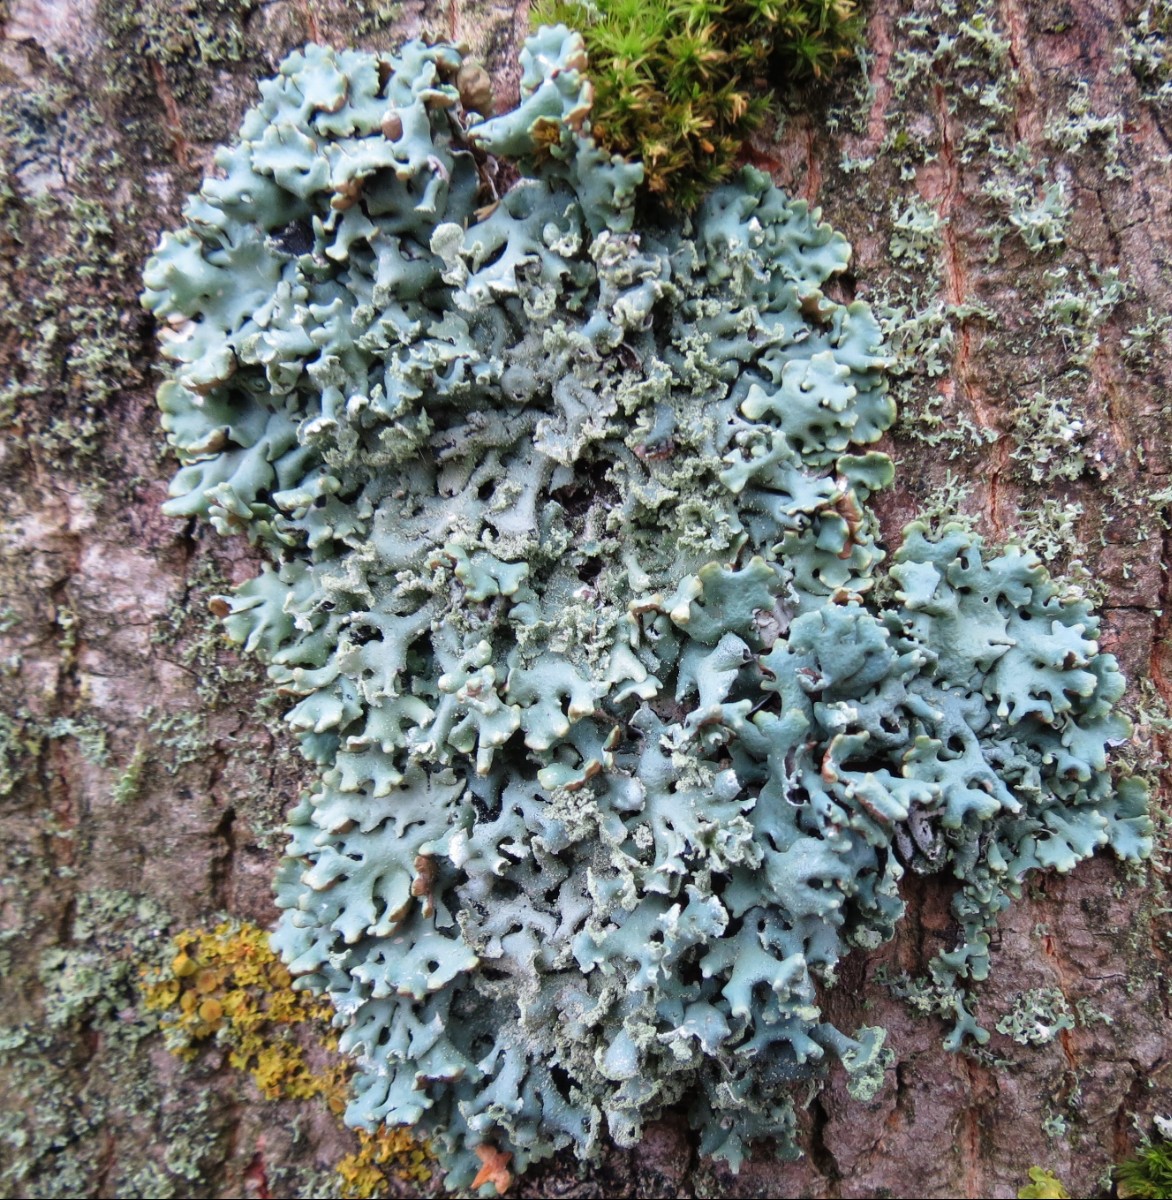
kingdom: Fungi
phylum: Ascomycota
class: Lecanoromycetes
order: Lecanorales
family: Parmeliaceae
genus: Hypogymnia
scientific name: Hypogymnia physodes
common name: almindelig kvistlav
